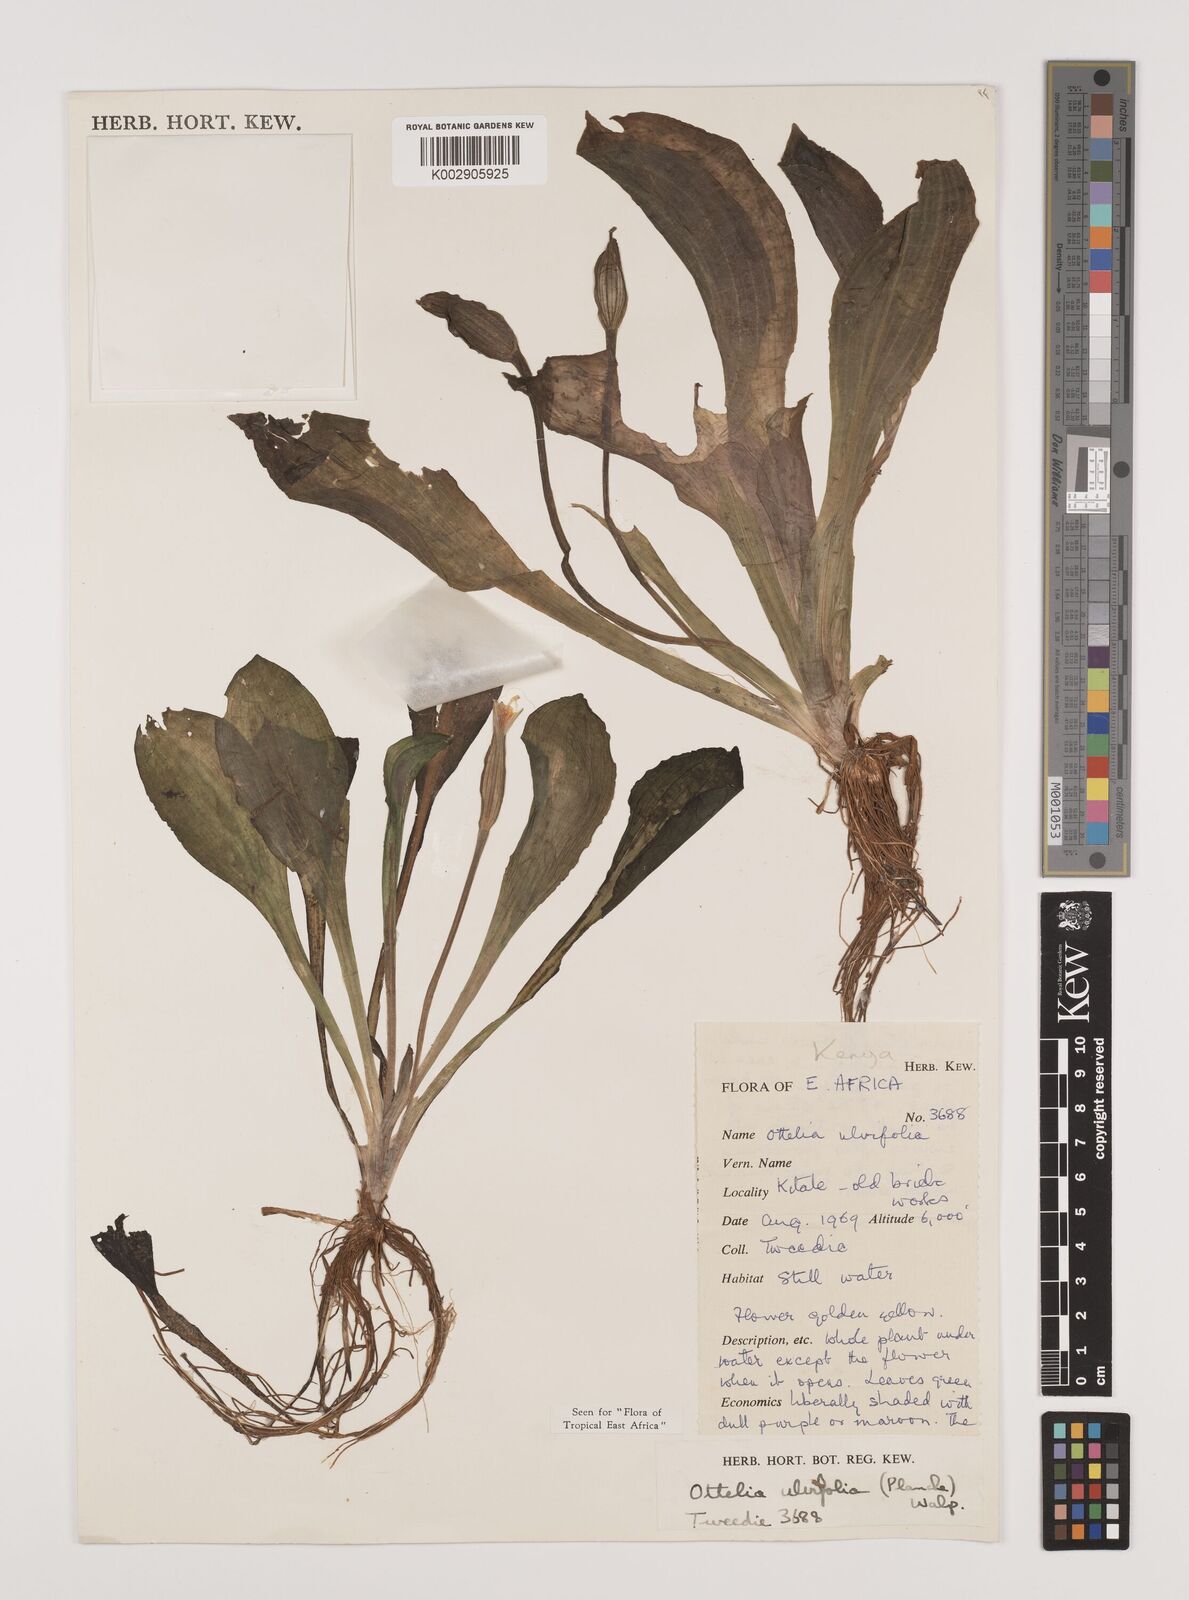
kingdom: Plantae
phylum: Tracheophyta
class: Liliopsida
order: Alismatales
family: Hydrocharitaceae
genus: Ottelia
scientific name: Ottelia ulvifolia
